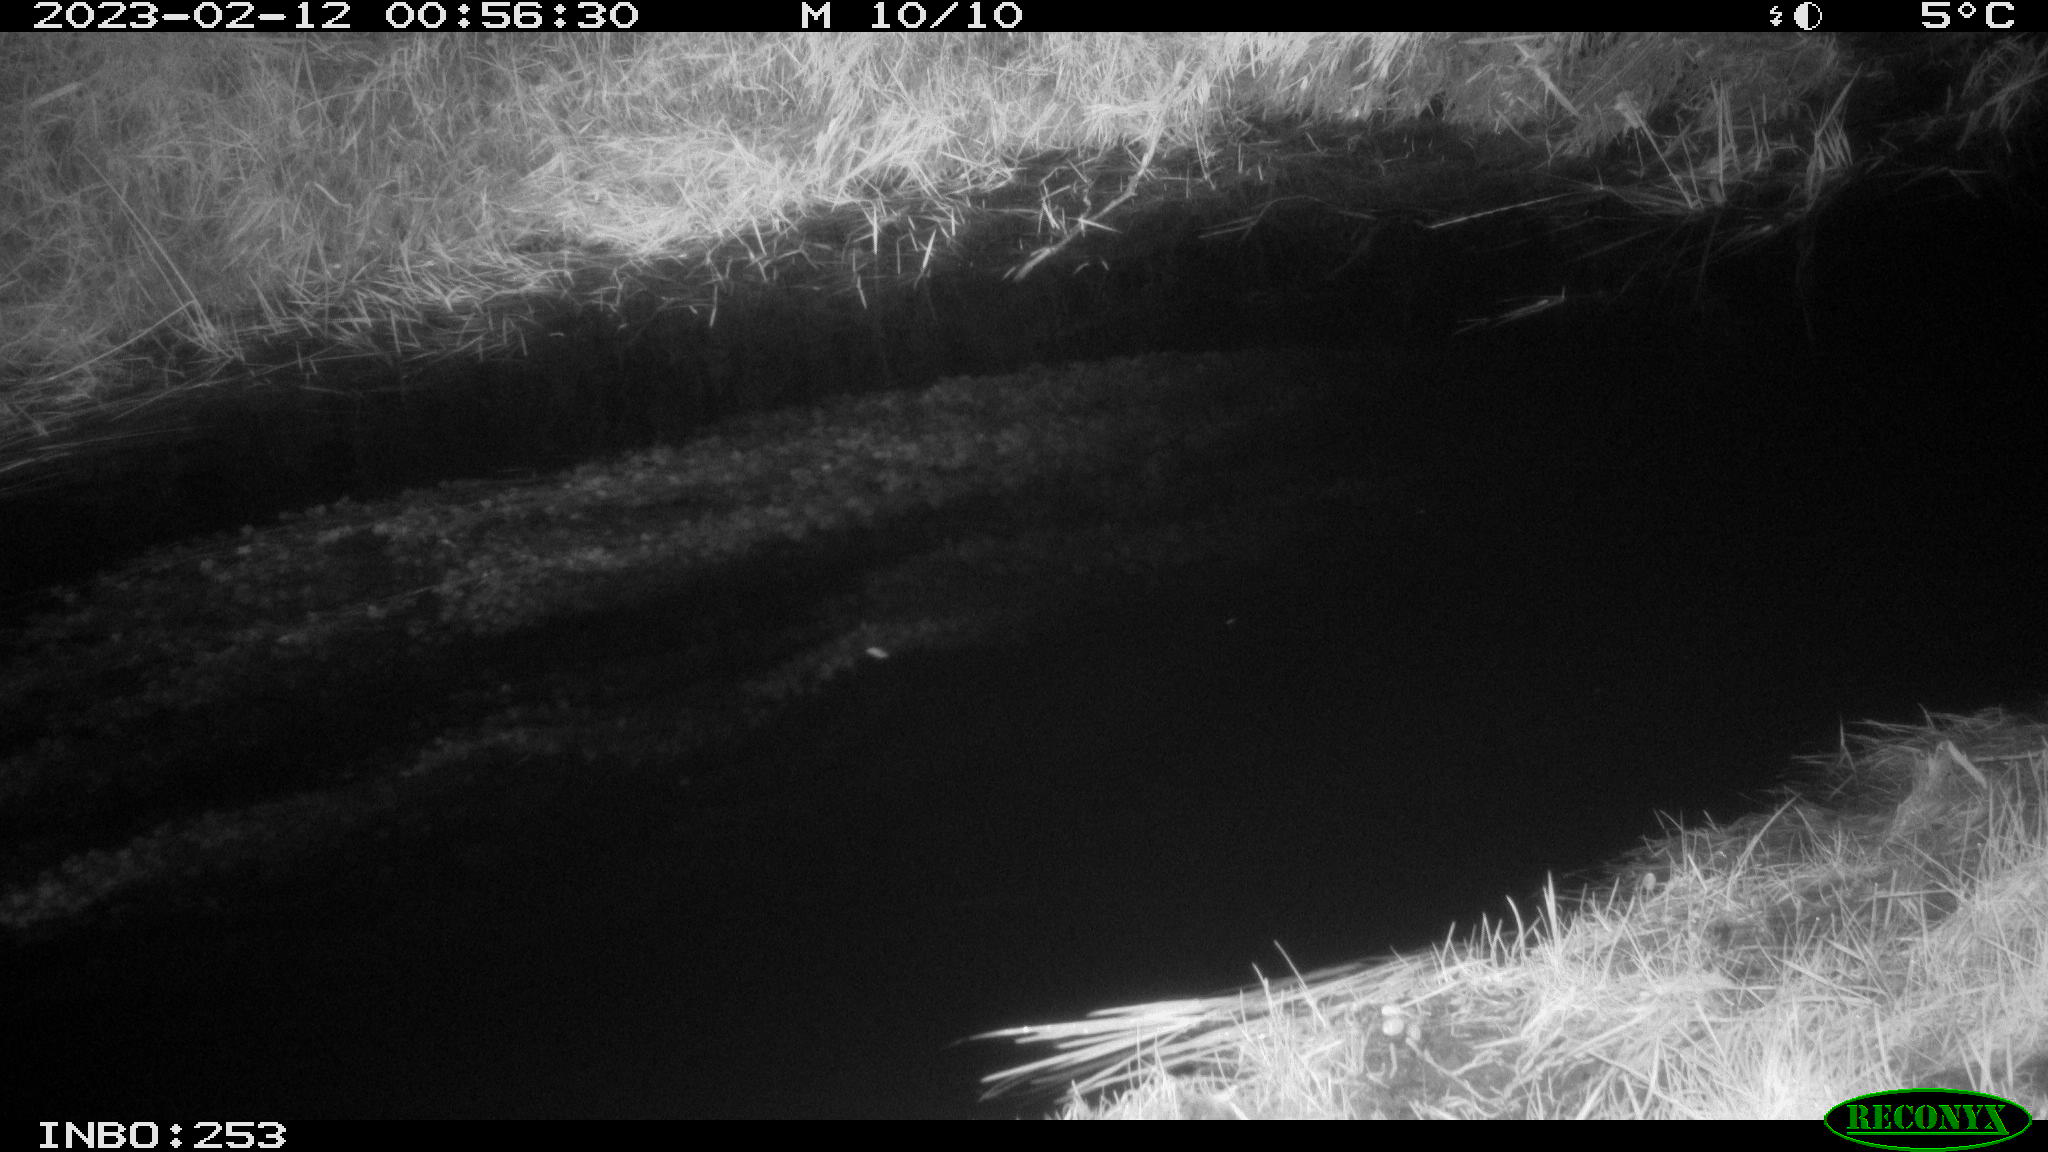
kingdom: Animalia
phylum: Chordata
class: Aves
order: Anseriformes
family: Anatidae
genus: Anas
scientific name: Anas
